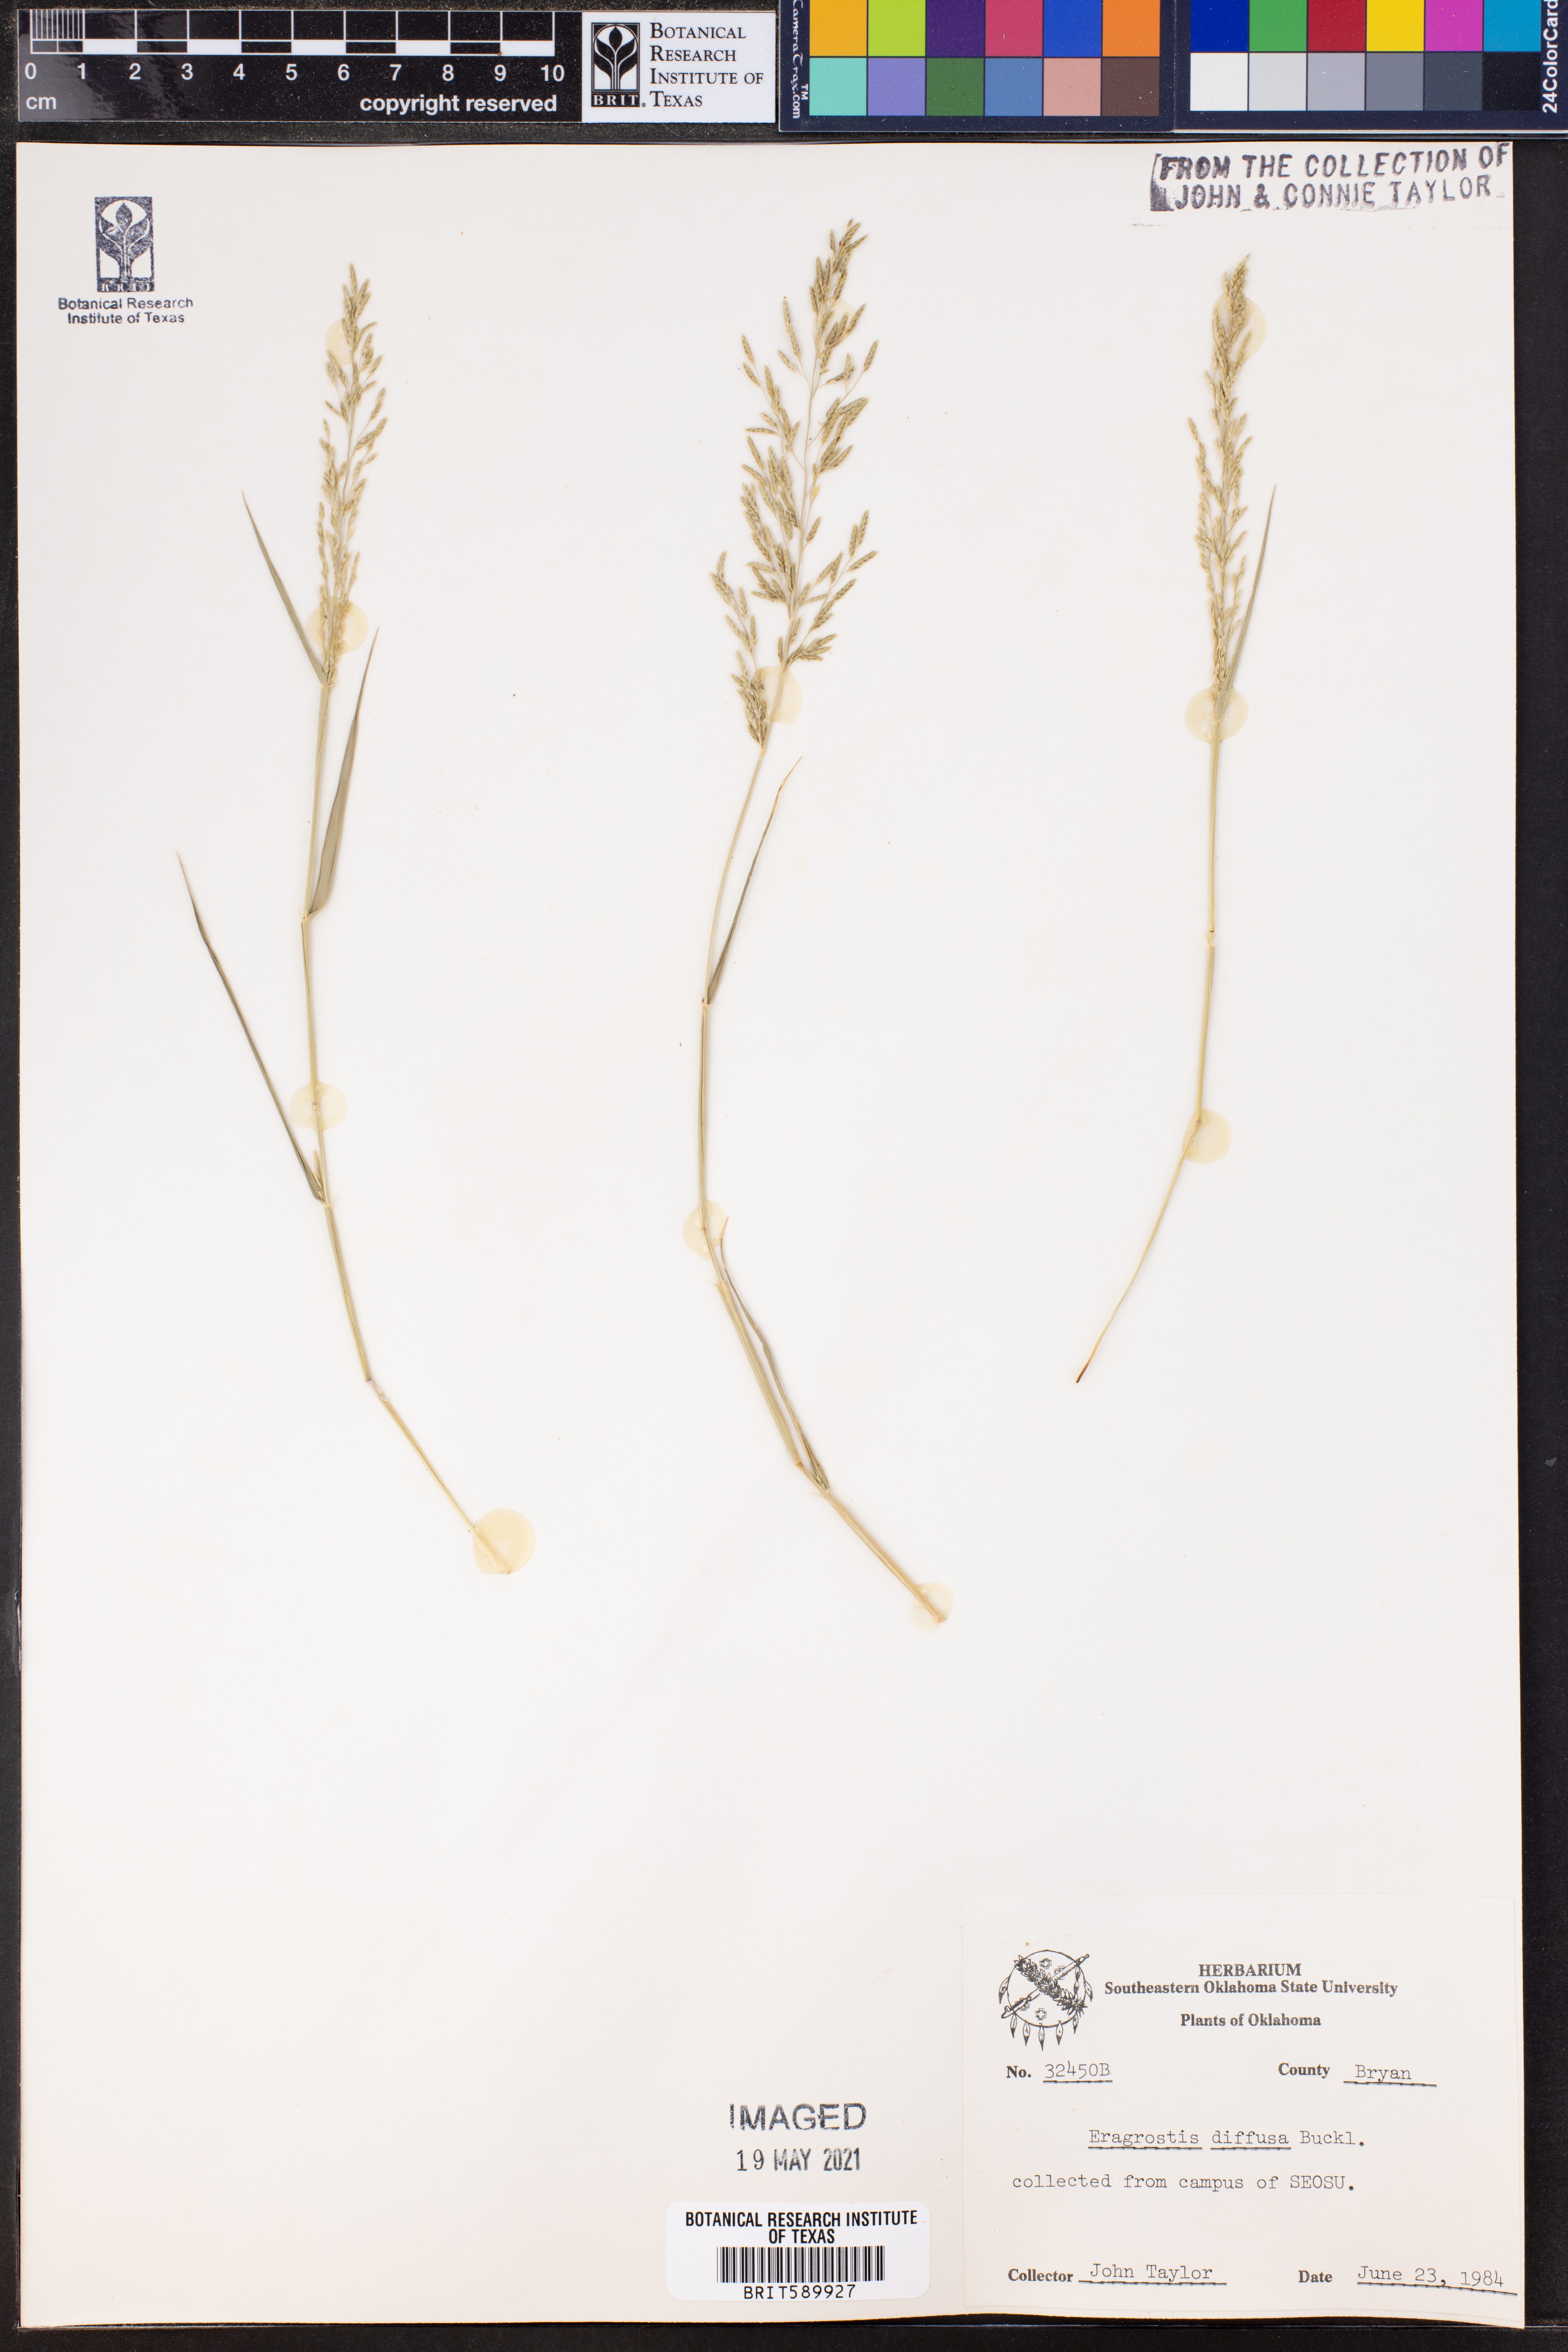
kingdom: Plantae
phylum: Tracheophyta
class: Liliopsida
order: Poales
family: Poaceae
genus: Eragrostis
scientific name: Eragrostis pectinacea
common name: Tufted lovegrass
